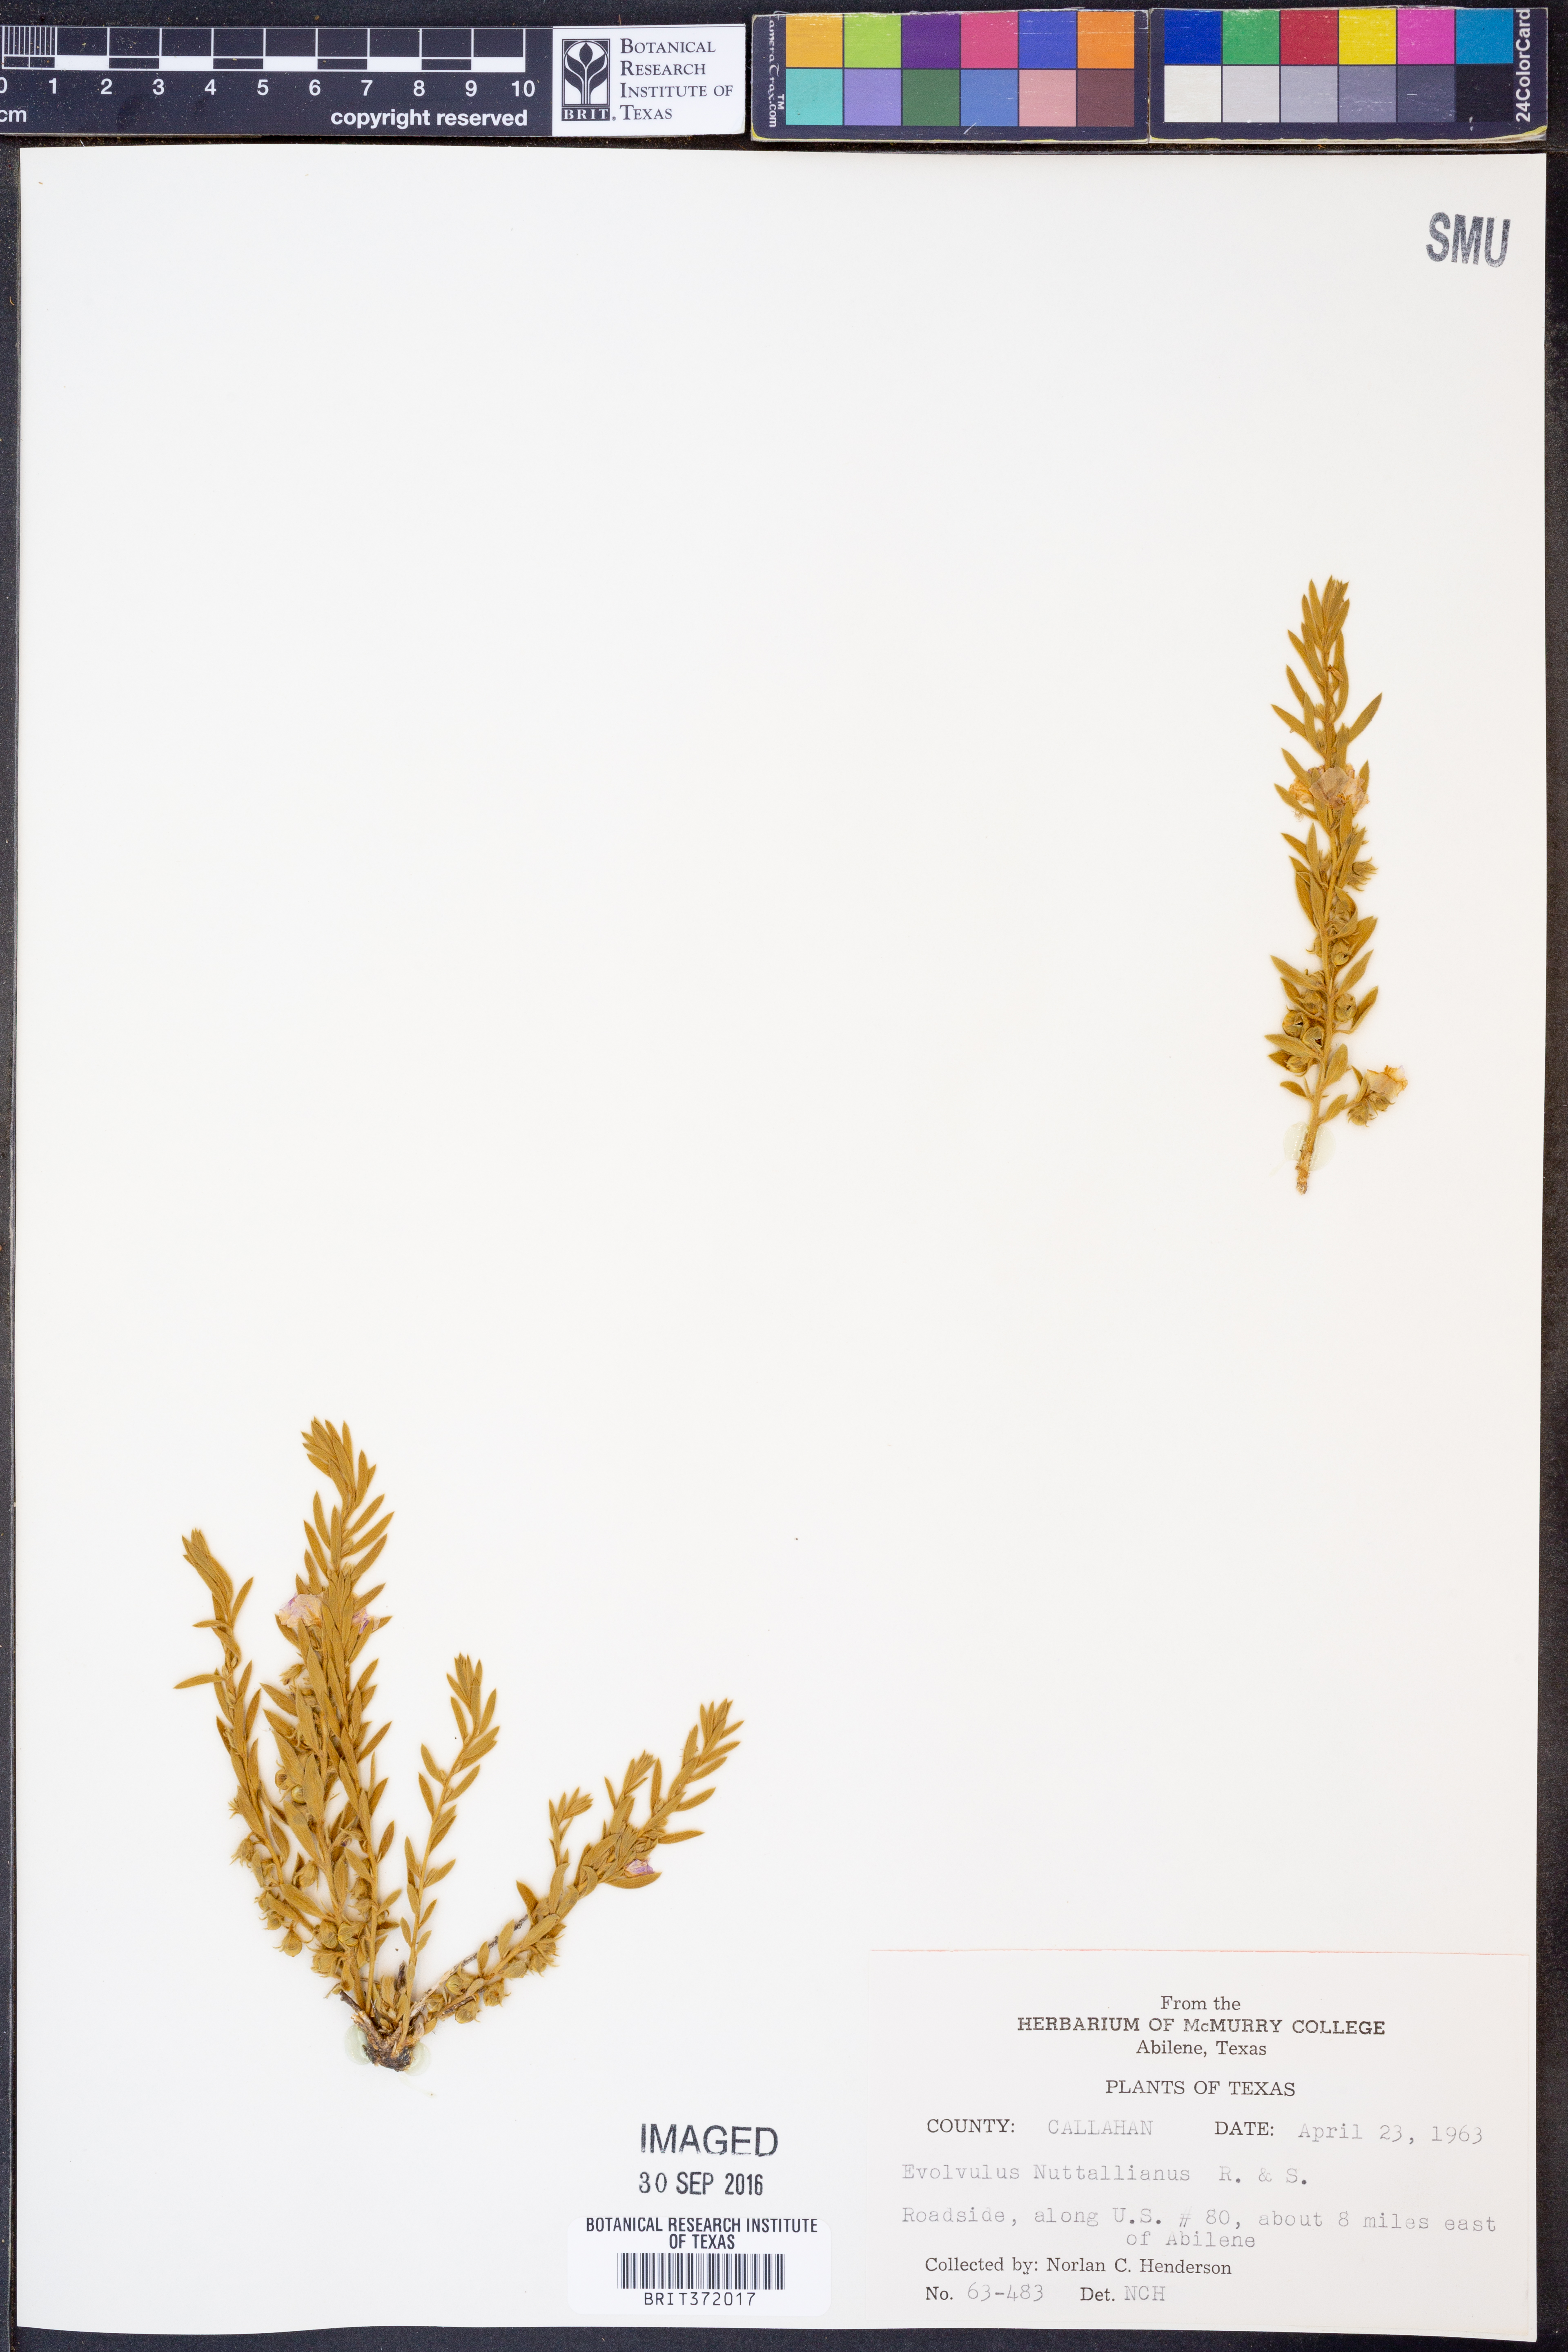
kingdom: Plantae
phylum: Tracheophyta
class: Magnoliopsida
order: Solanales
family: Convolvulaceae
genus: Evolvulus
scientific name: Evolvulus nuttallianus
